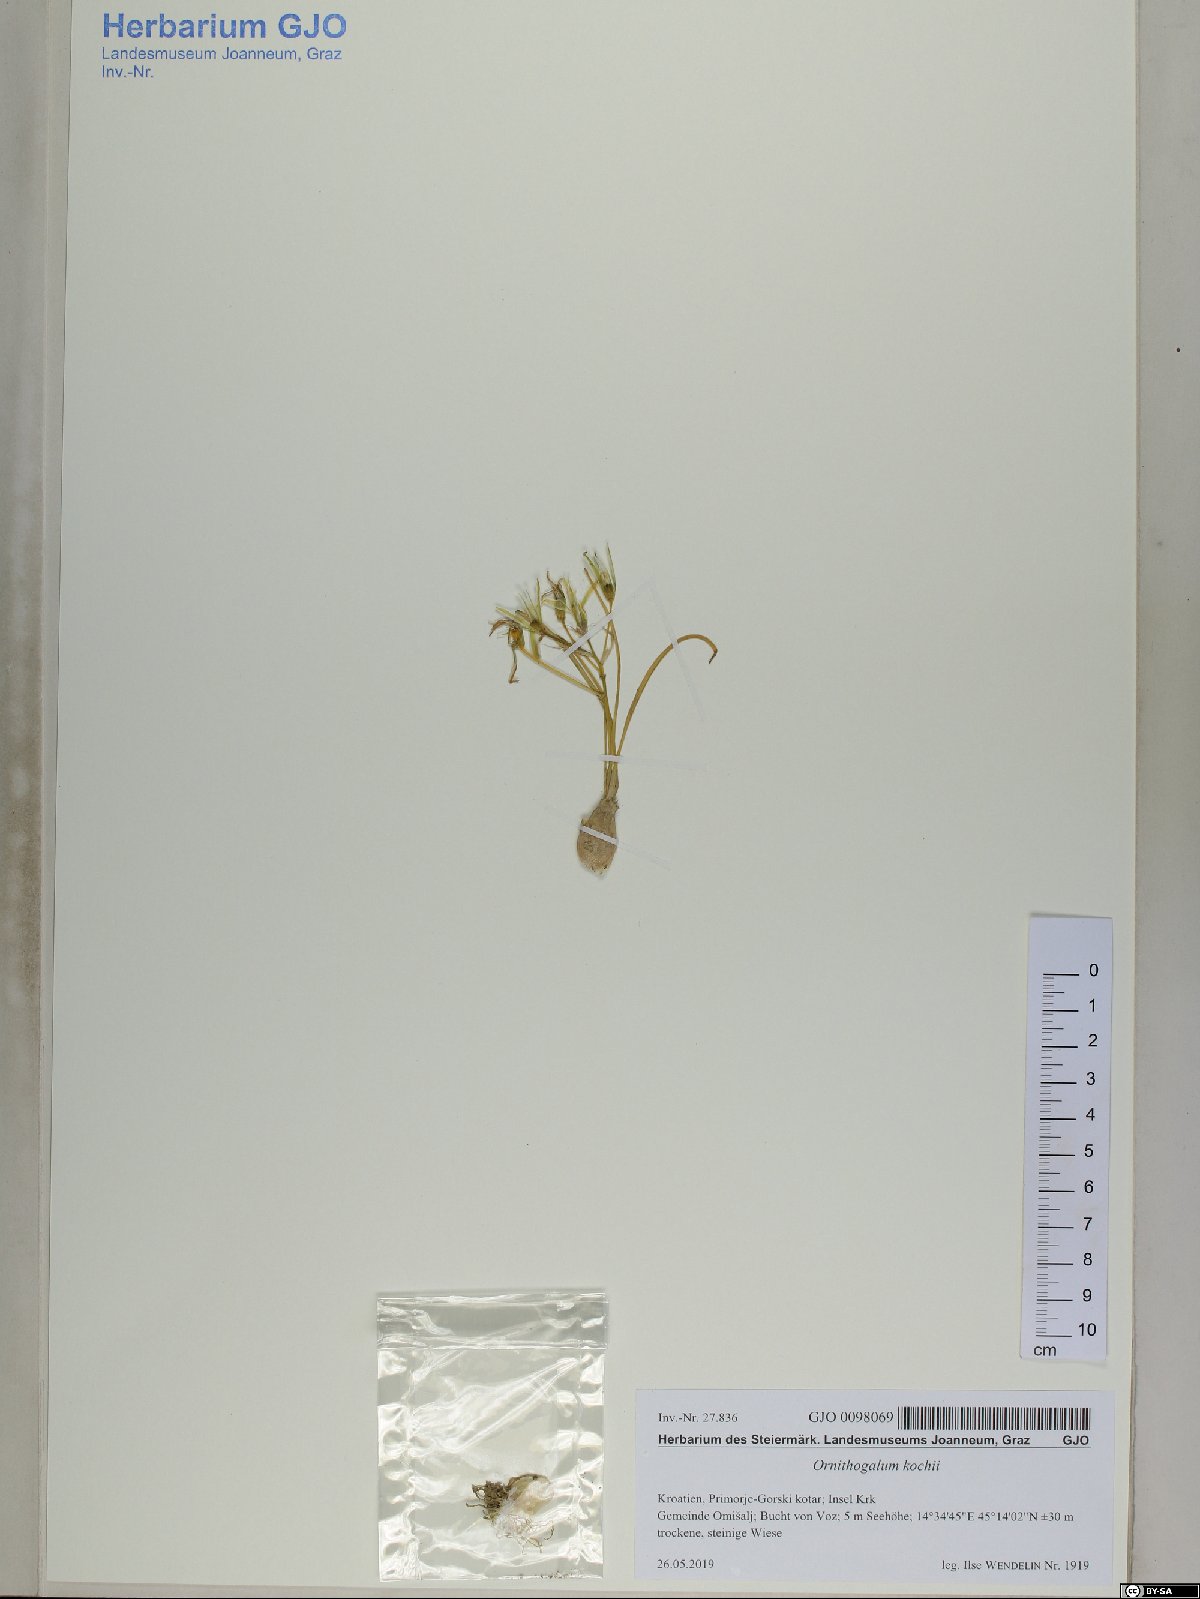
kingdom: Plantae
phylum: Tracheophyta
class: Liliopsida
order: Asparagales
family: Asparagaceae
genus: Ornithogalum
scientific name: Ornithogalum orthophyllum
